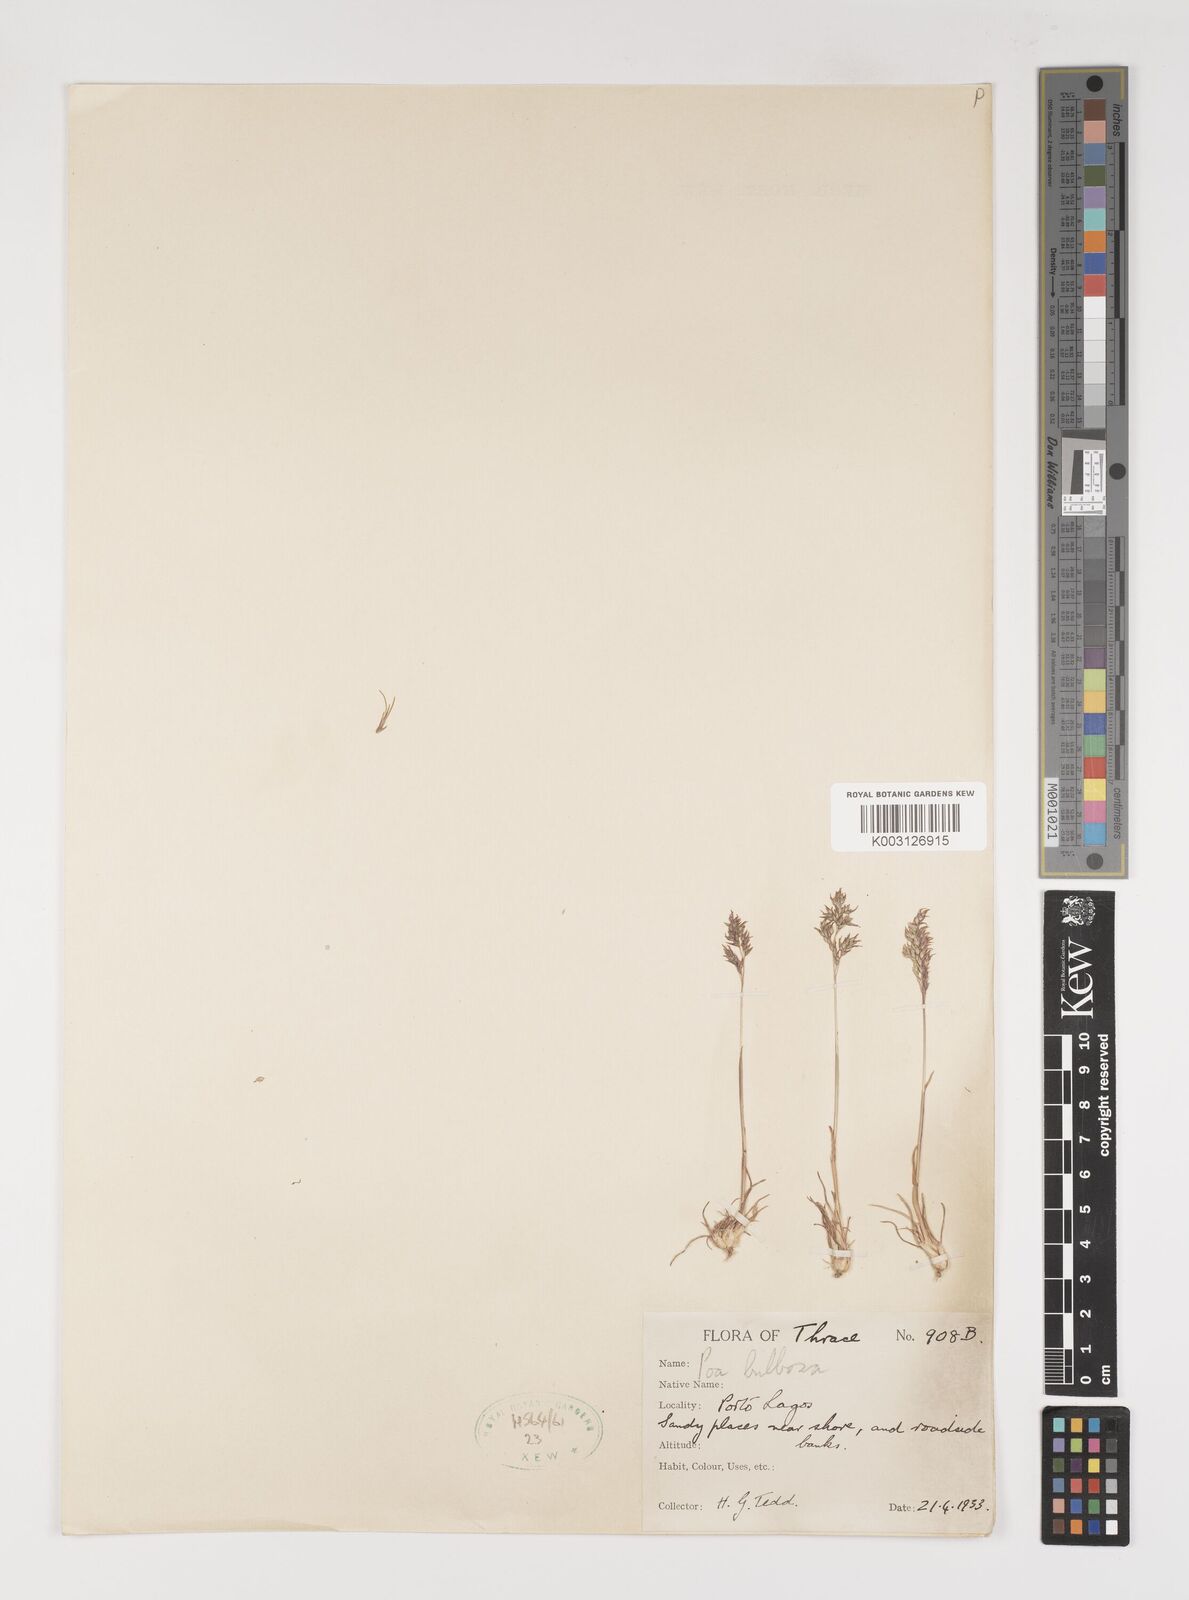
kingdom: Plantae
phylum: Tracheophyta
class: Liliopsida
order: Poales
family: Poaceae
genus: Poa
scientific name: Poa bulbosa
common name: Bulbous bluegrass
